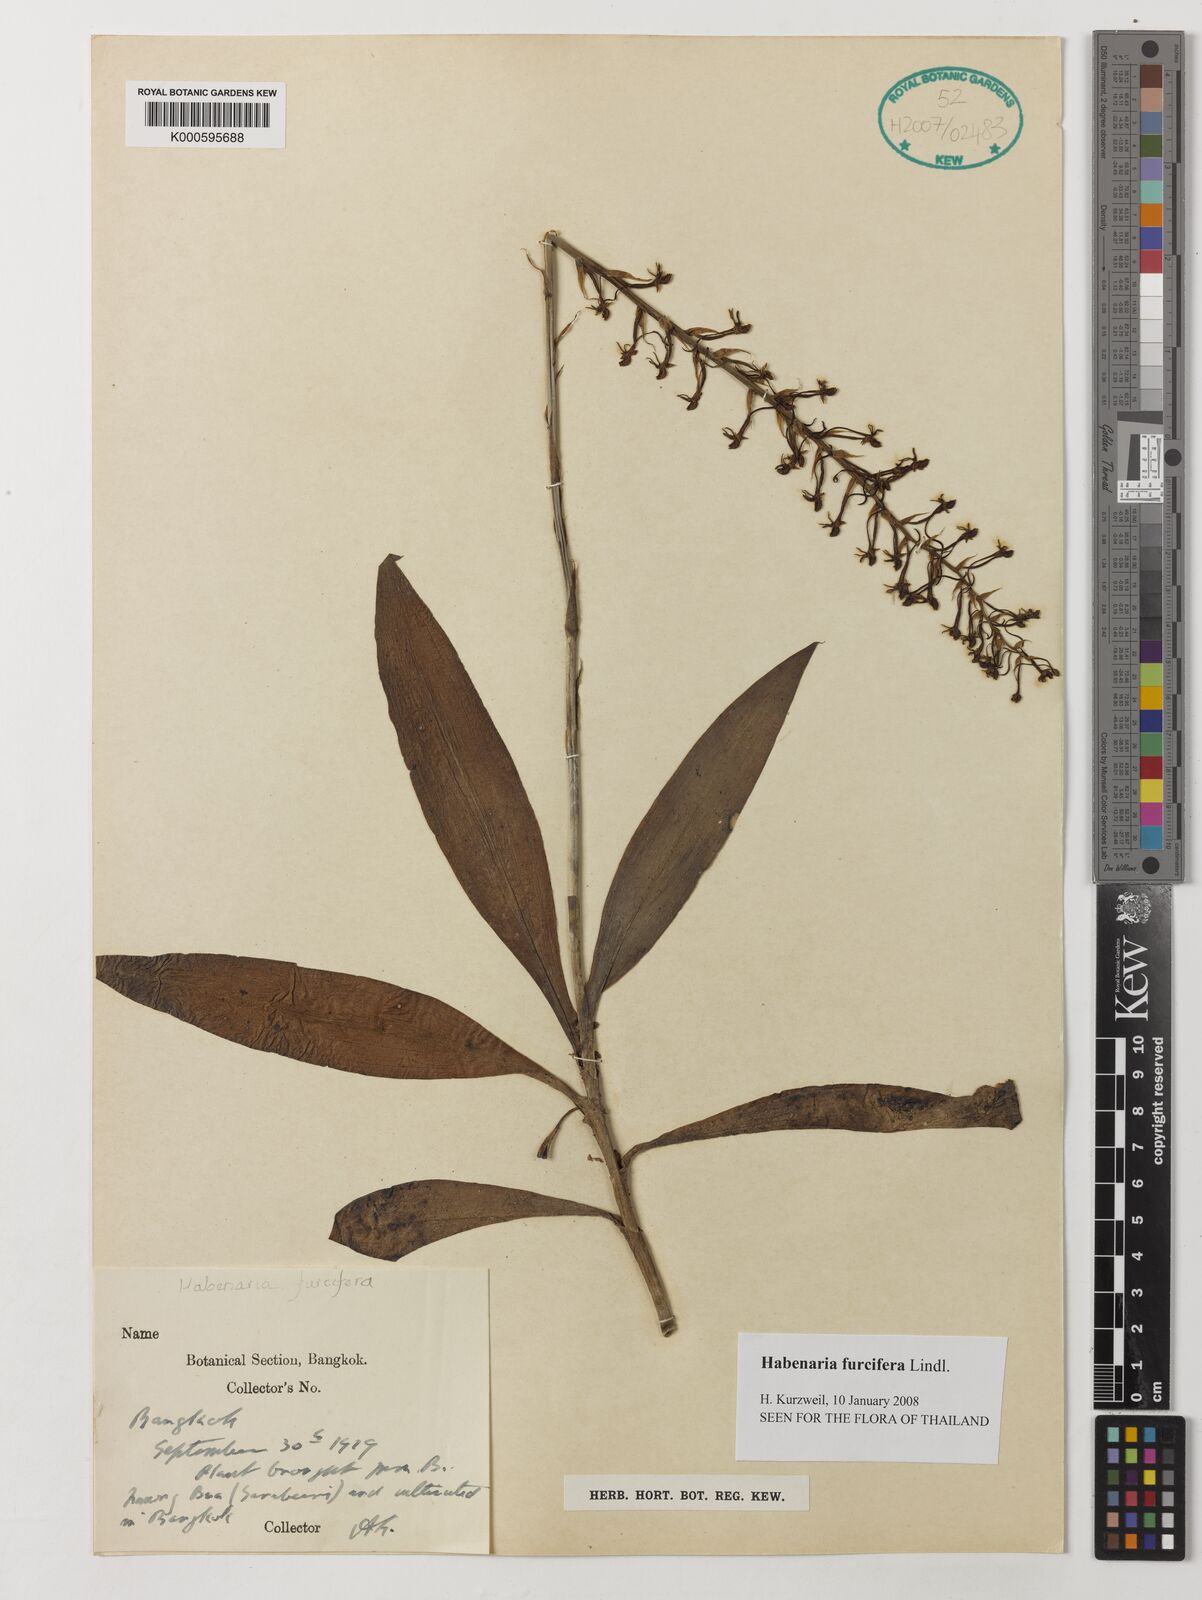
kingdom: Plantae
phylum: Tracheophyta
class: Liliopsida
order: Asparagales
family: Orchidaceae
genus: Habenaria
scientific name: Habenaria furcifera
